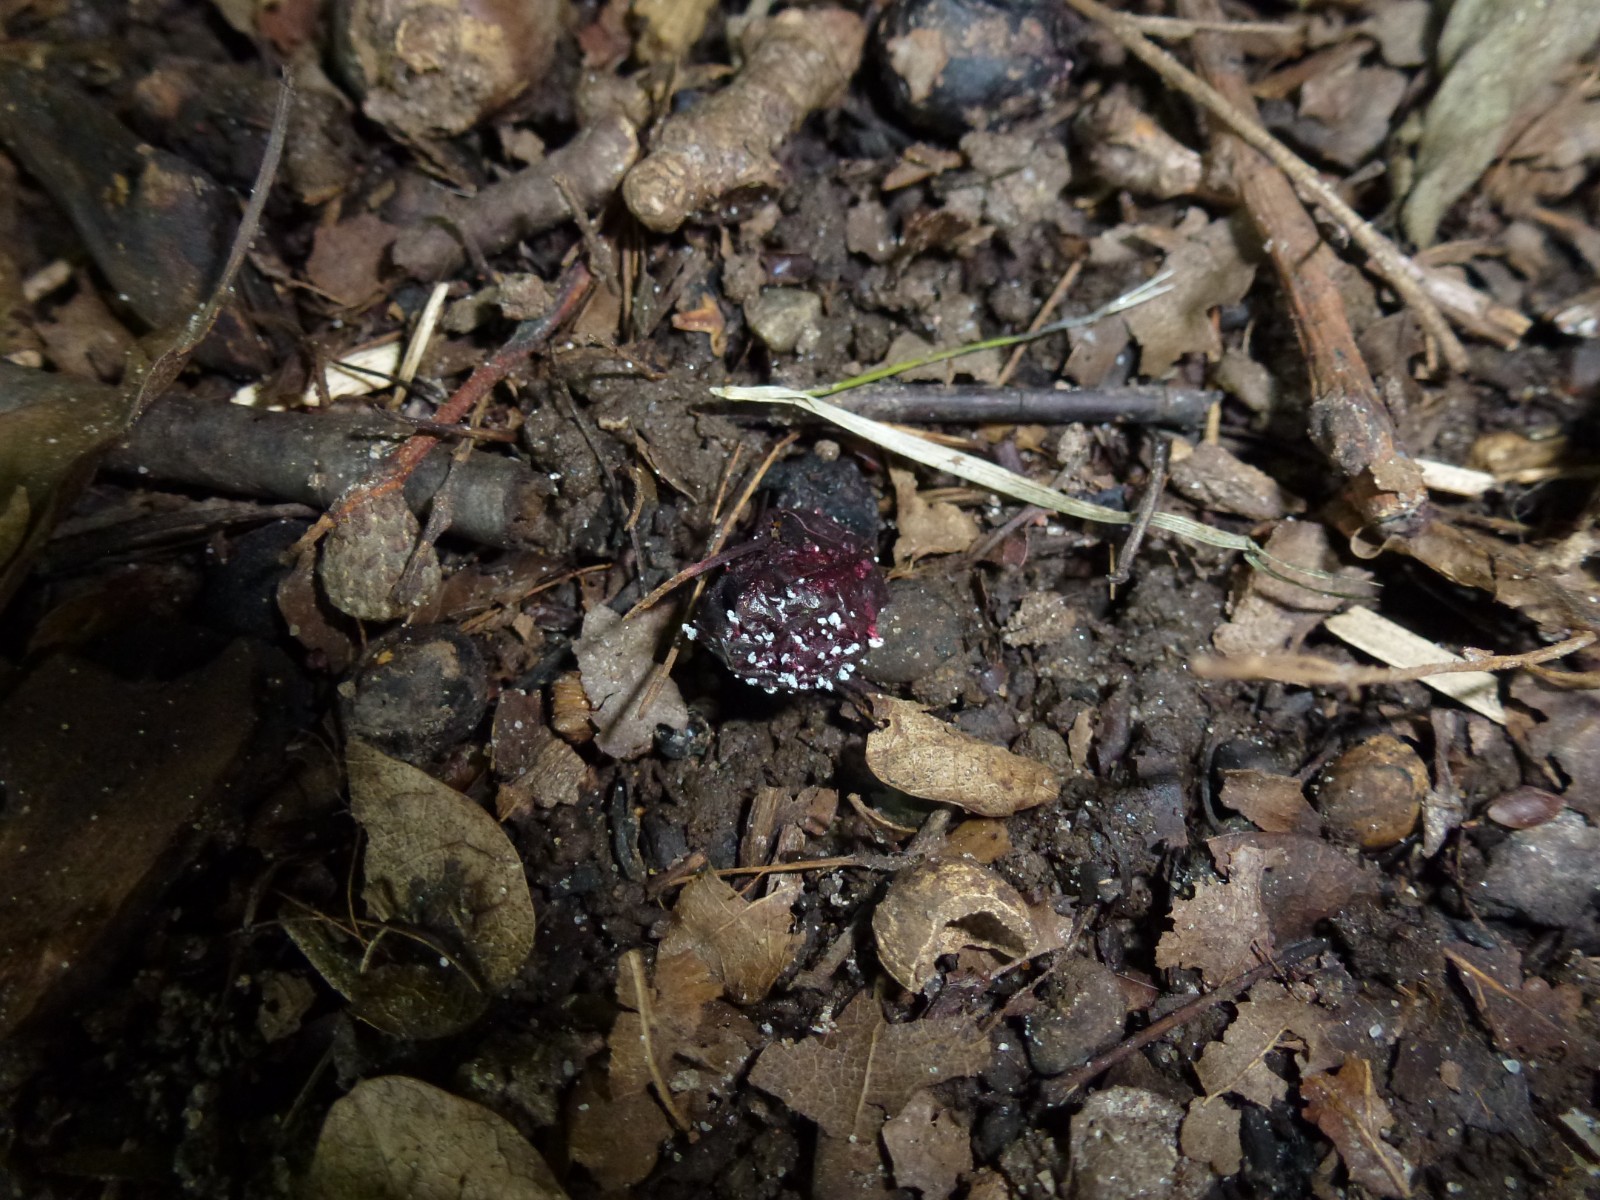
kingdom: Fungi
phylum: Ascomycota
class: Eurotiomycetes
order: Eurotiales
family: Aspergillaceae
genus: Penicillium
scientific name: Penicillium
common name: penselskimmel
